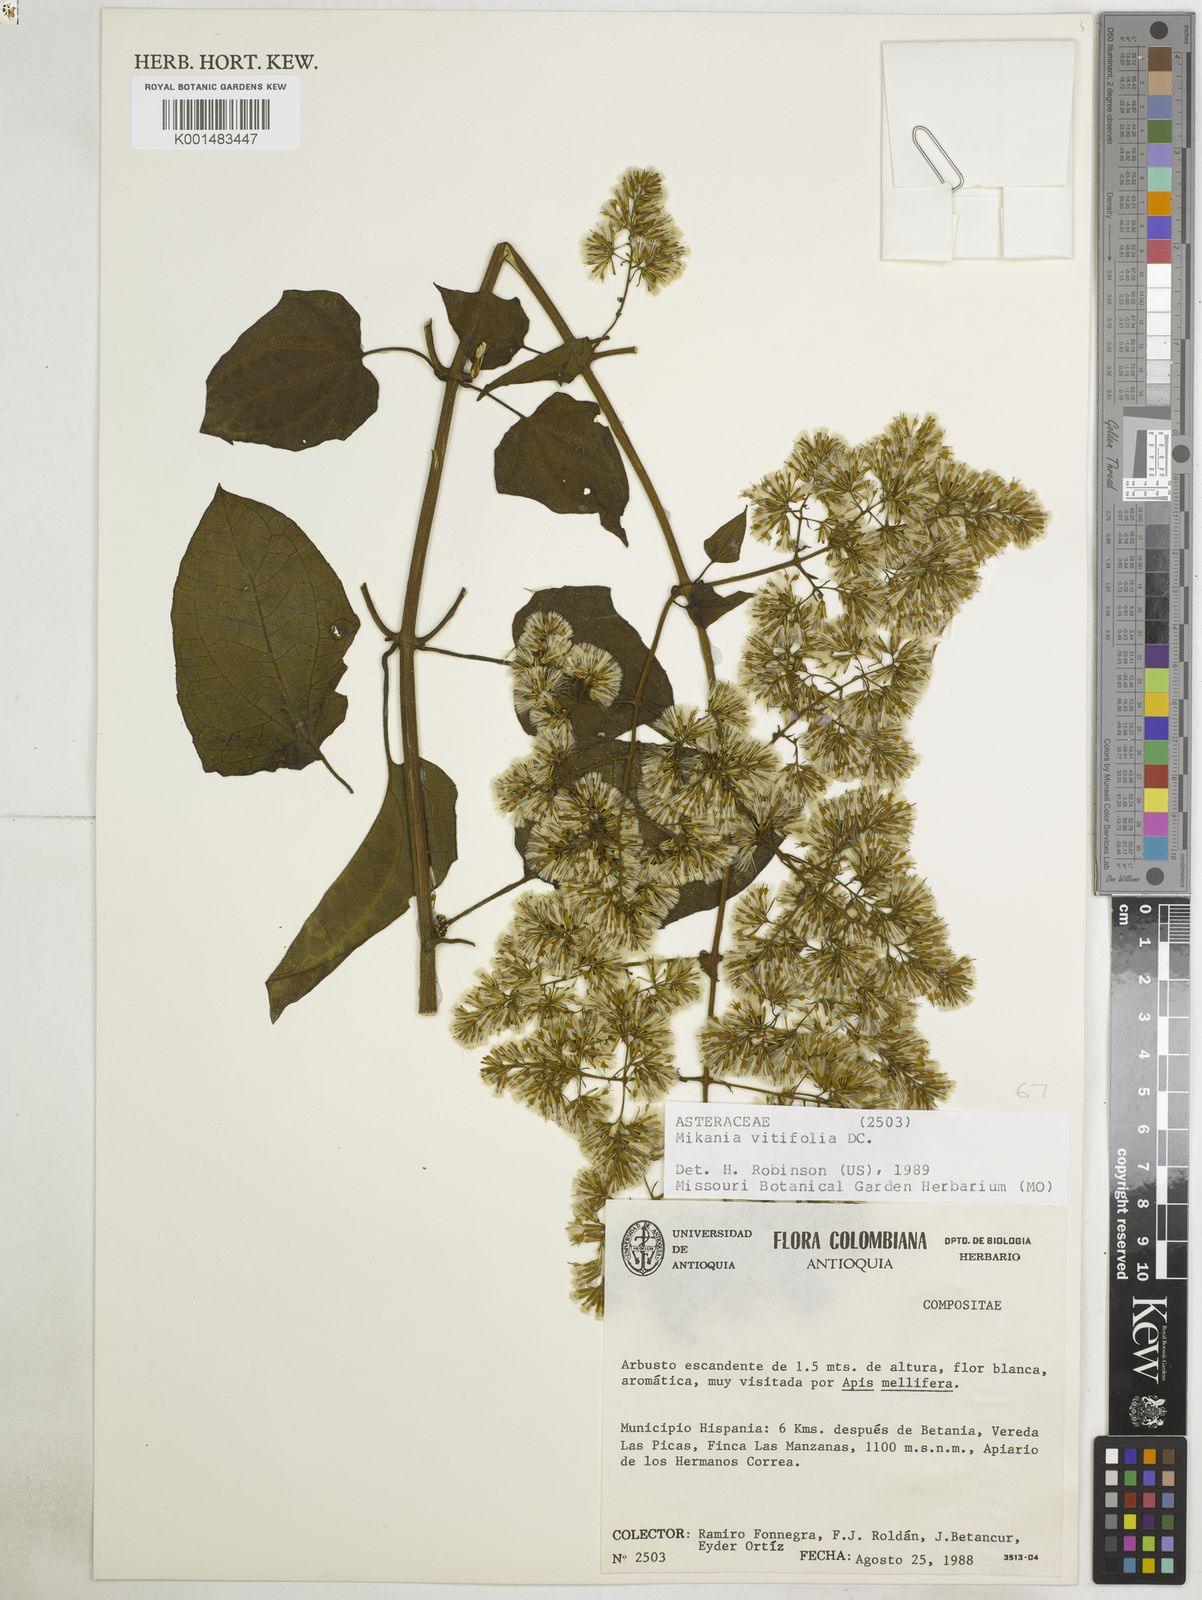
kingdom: Plantae
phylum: Tracheophyta
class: Magnoliopsida
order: Asterales
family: Asteraceae
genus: Mikania
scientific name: Mikania vitifolia
